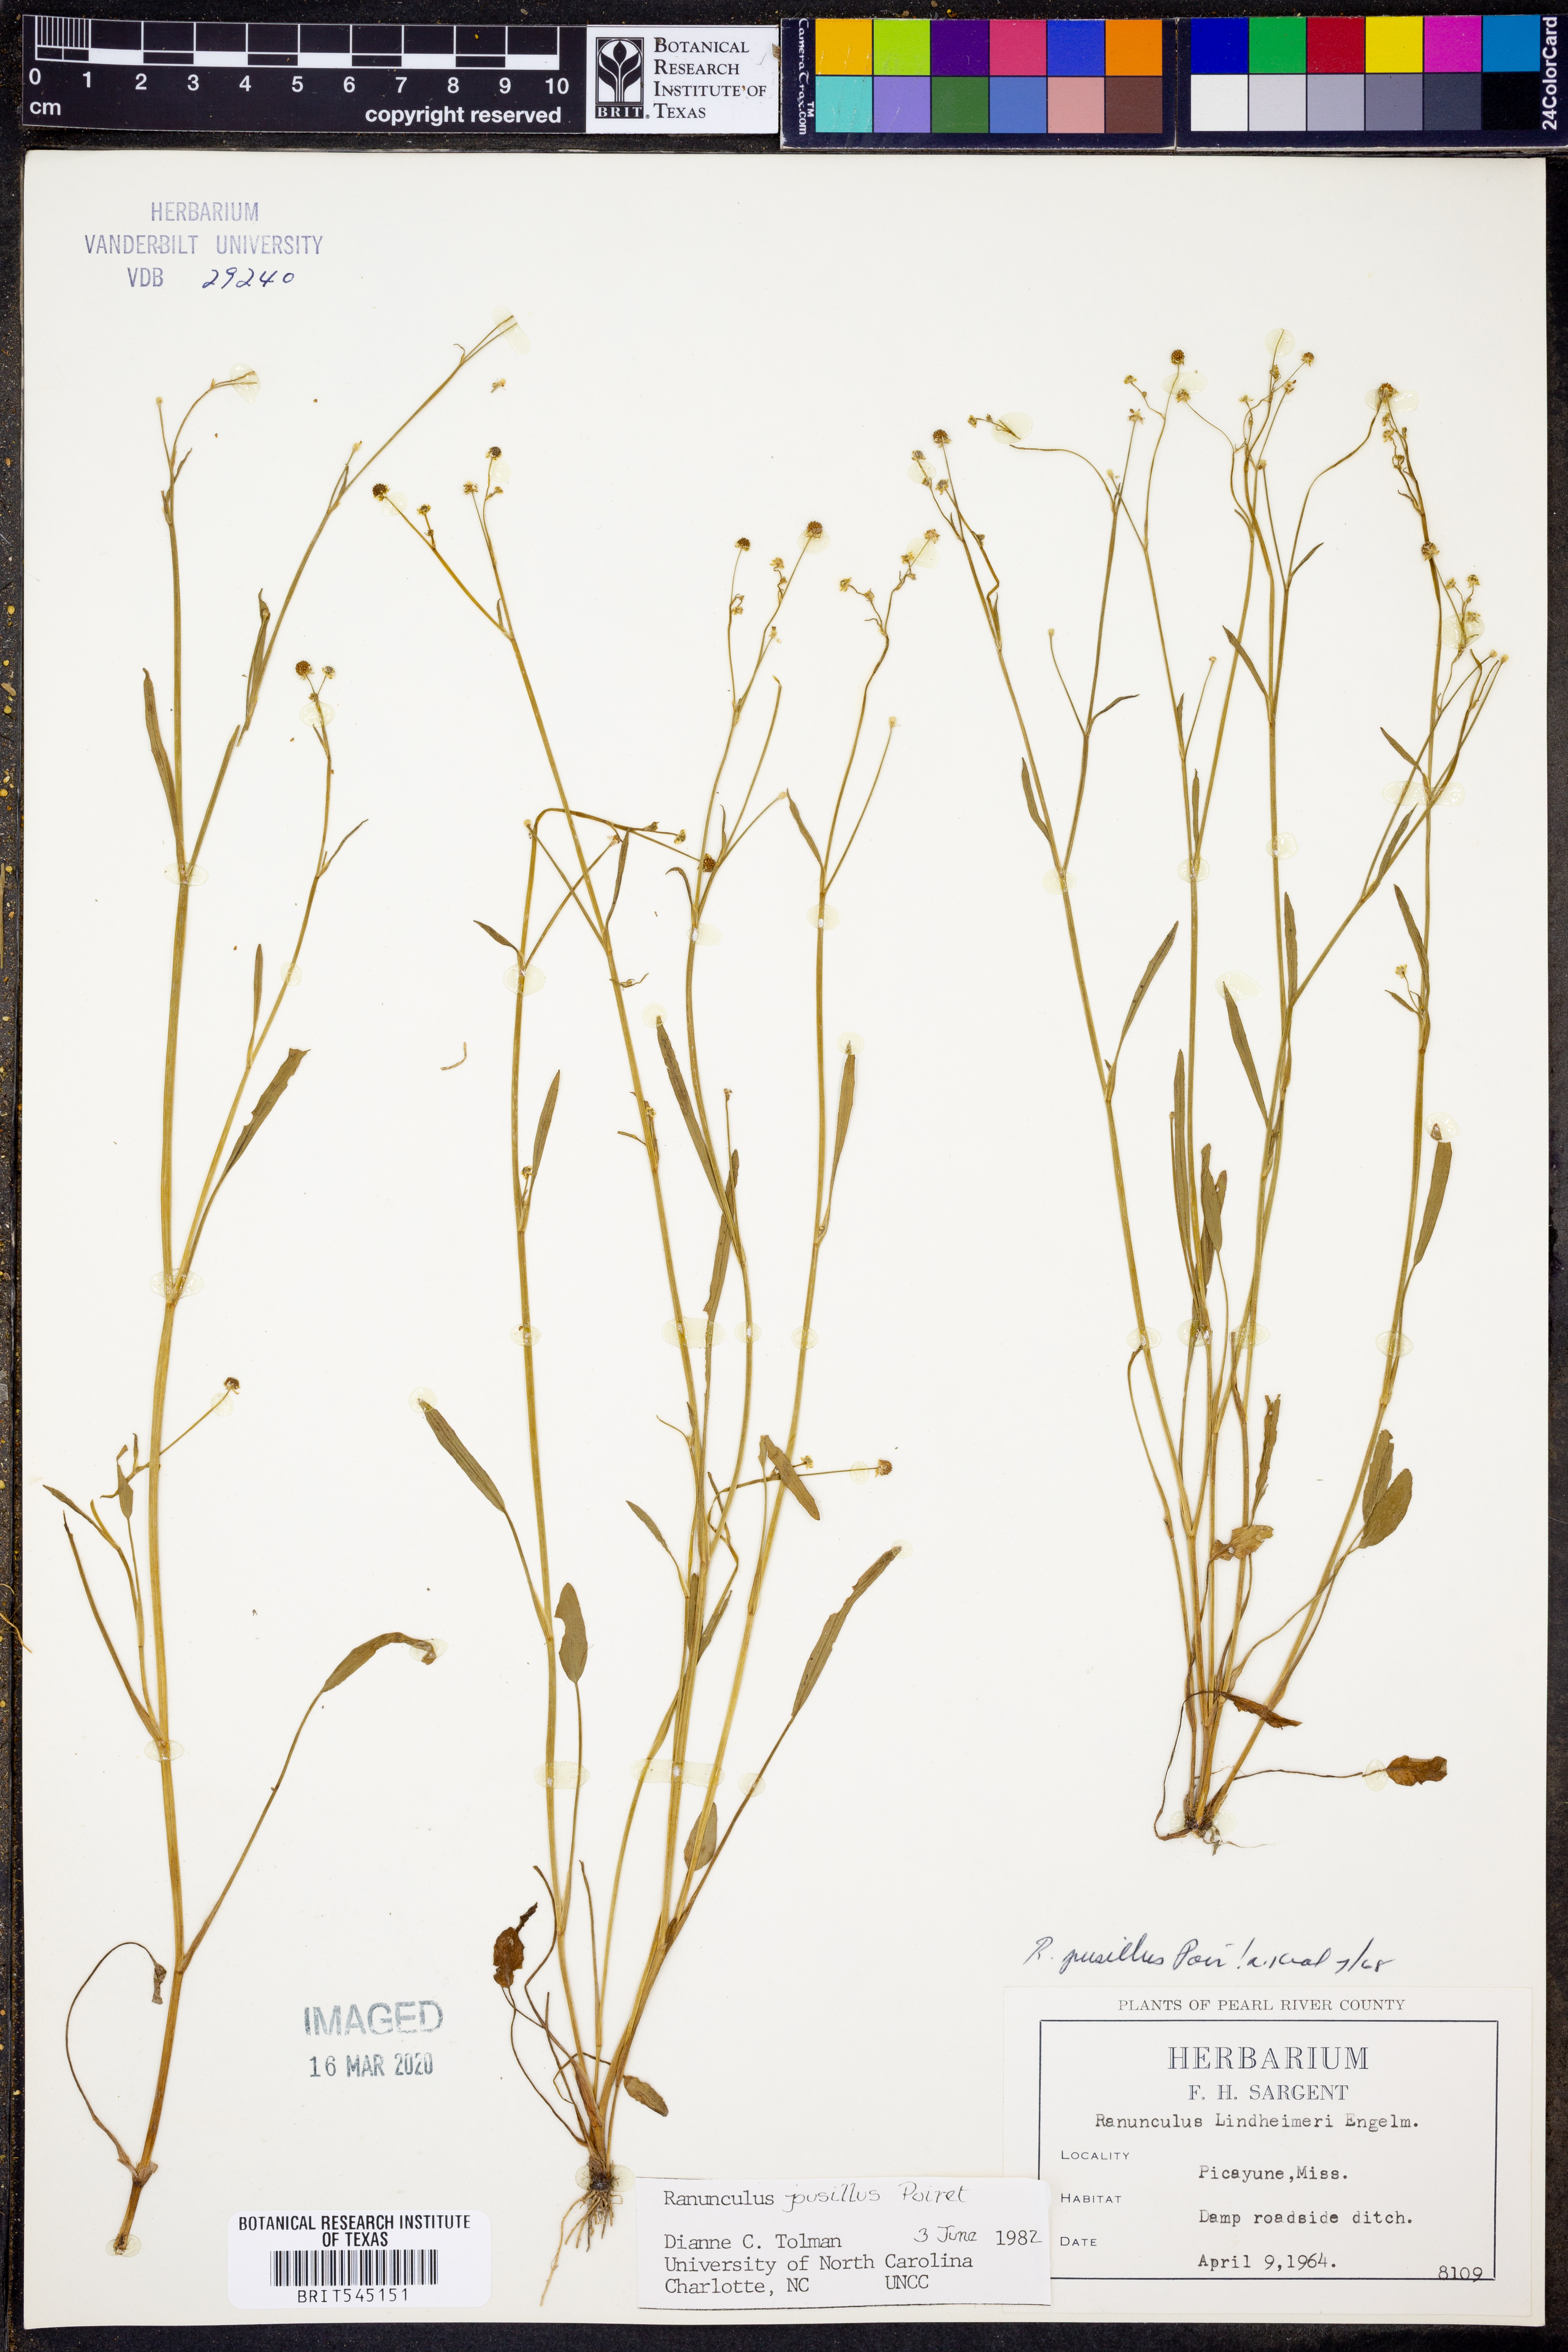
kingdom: Plantae
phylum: Tracheophyta
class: Magnoliopsida
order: Ranunculales
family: Ranunculaceae
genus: Ranunculus
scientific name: Ranunculus pusillus
